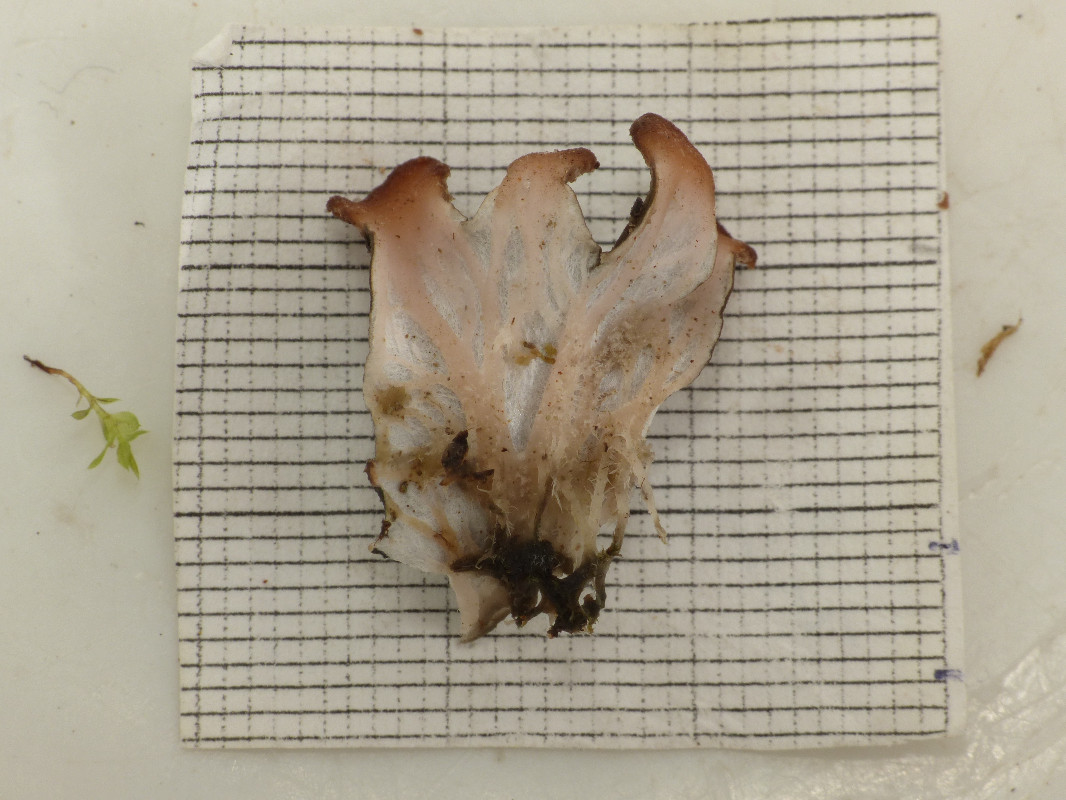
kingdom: Fungi
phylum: Ascomycota
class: Lecanoromycetes
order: Peltigerales
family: Peltigeraceae
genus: Peltigera
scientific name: Peltigera didactyla
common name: liden skjoldlav
